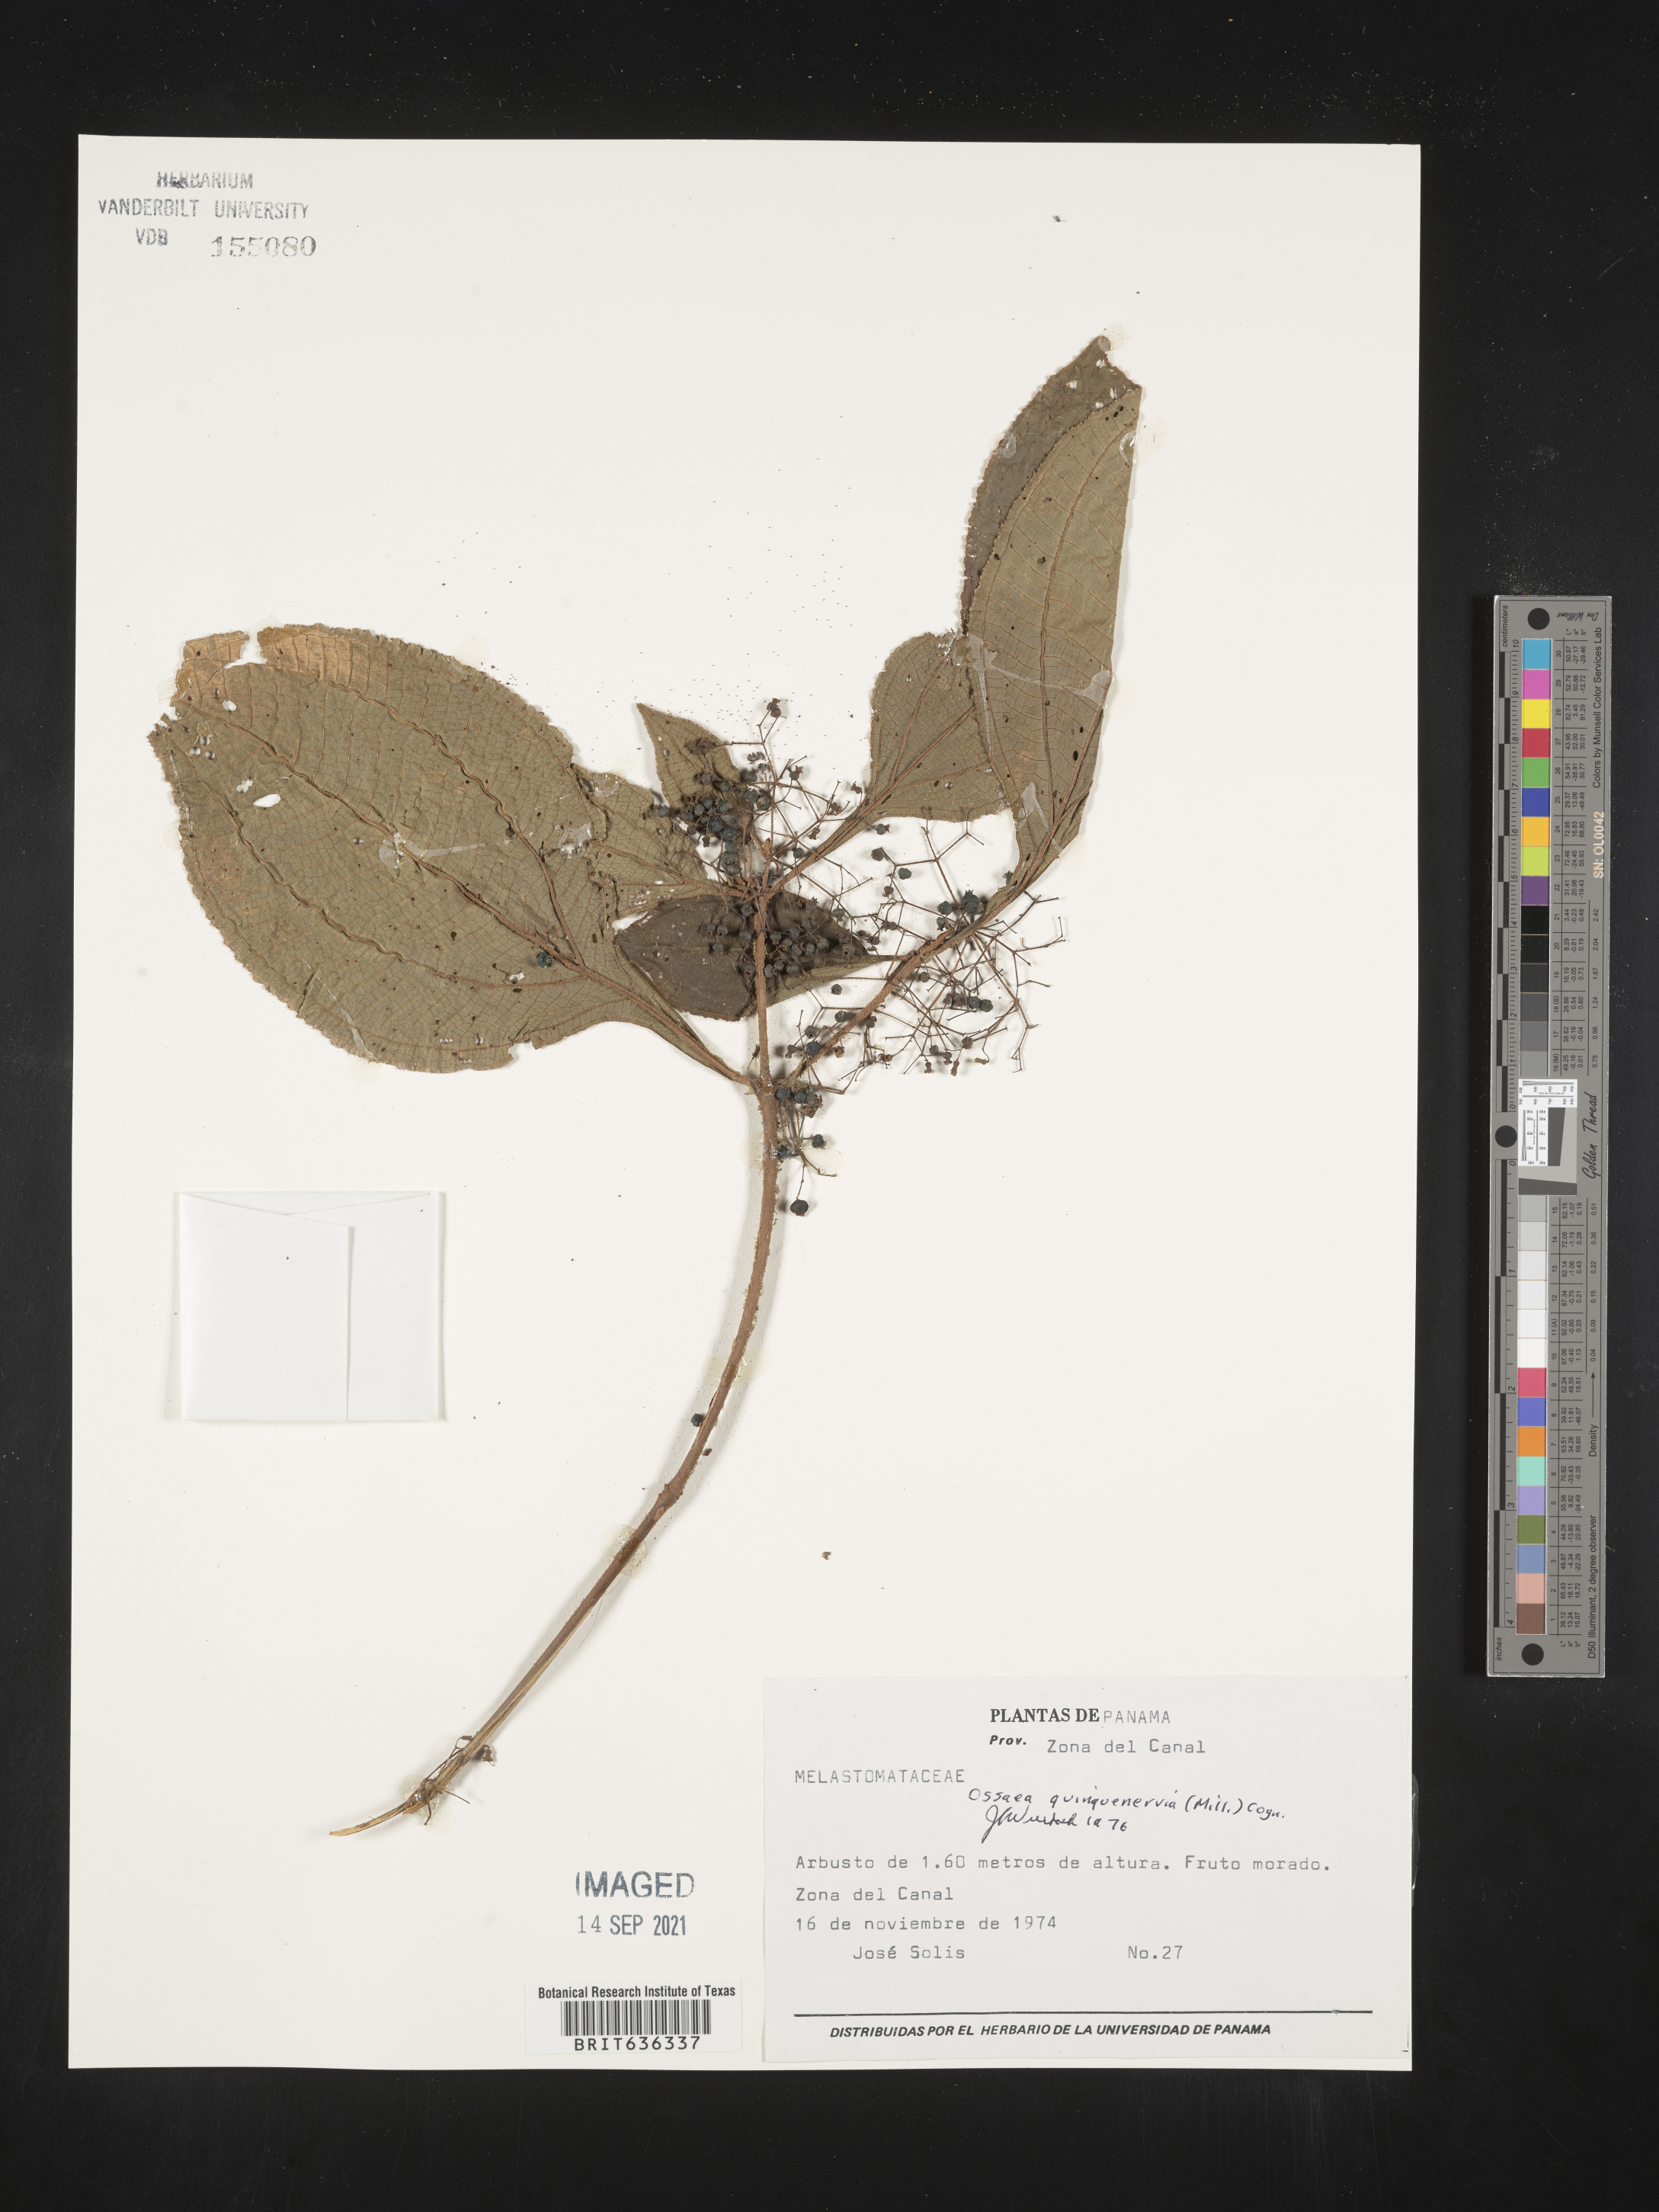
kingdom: Plantae
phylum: Tracheophyta
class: Magnoliopsida
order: Myrtales
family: Melastomataceae
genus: Ossaea
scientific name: Ossaea
